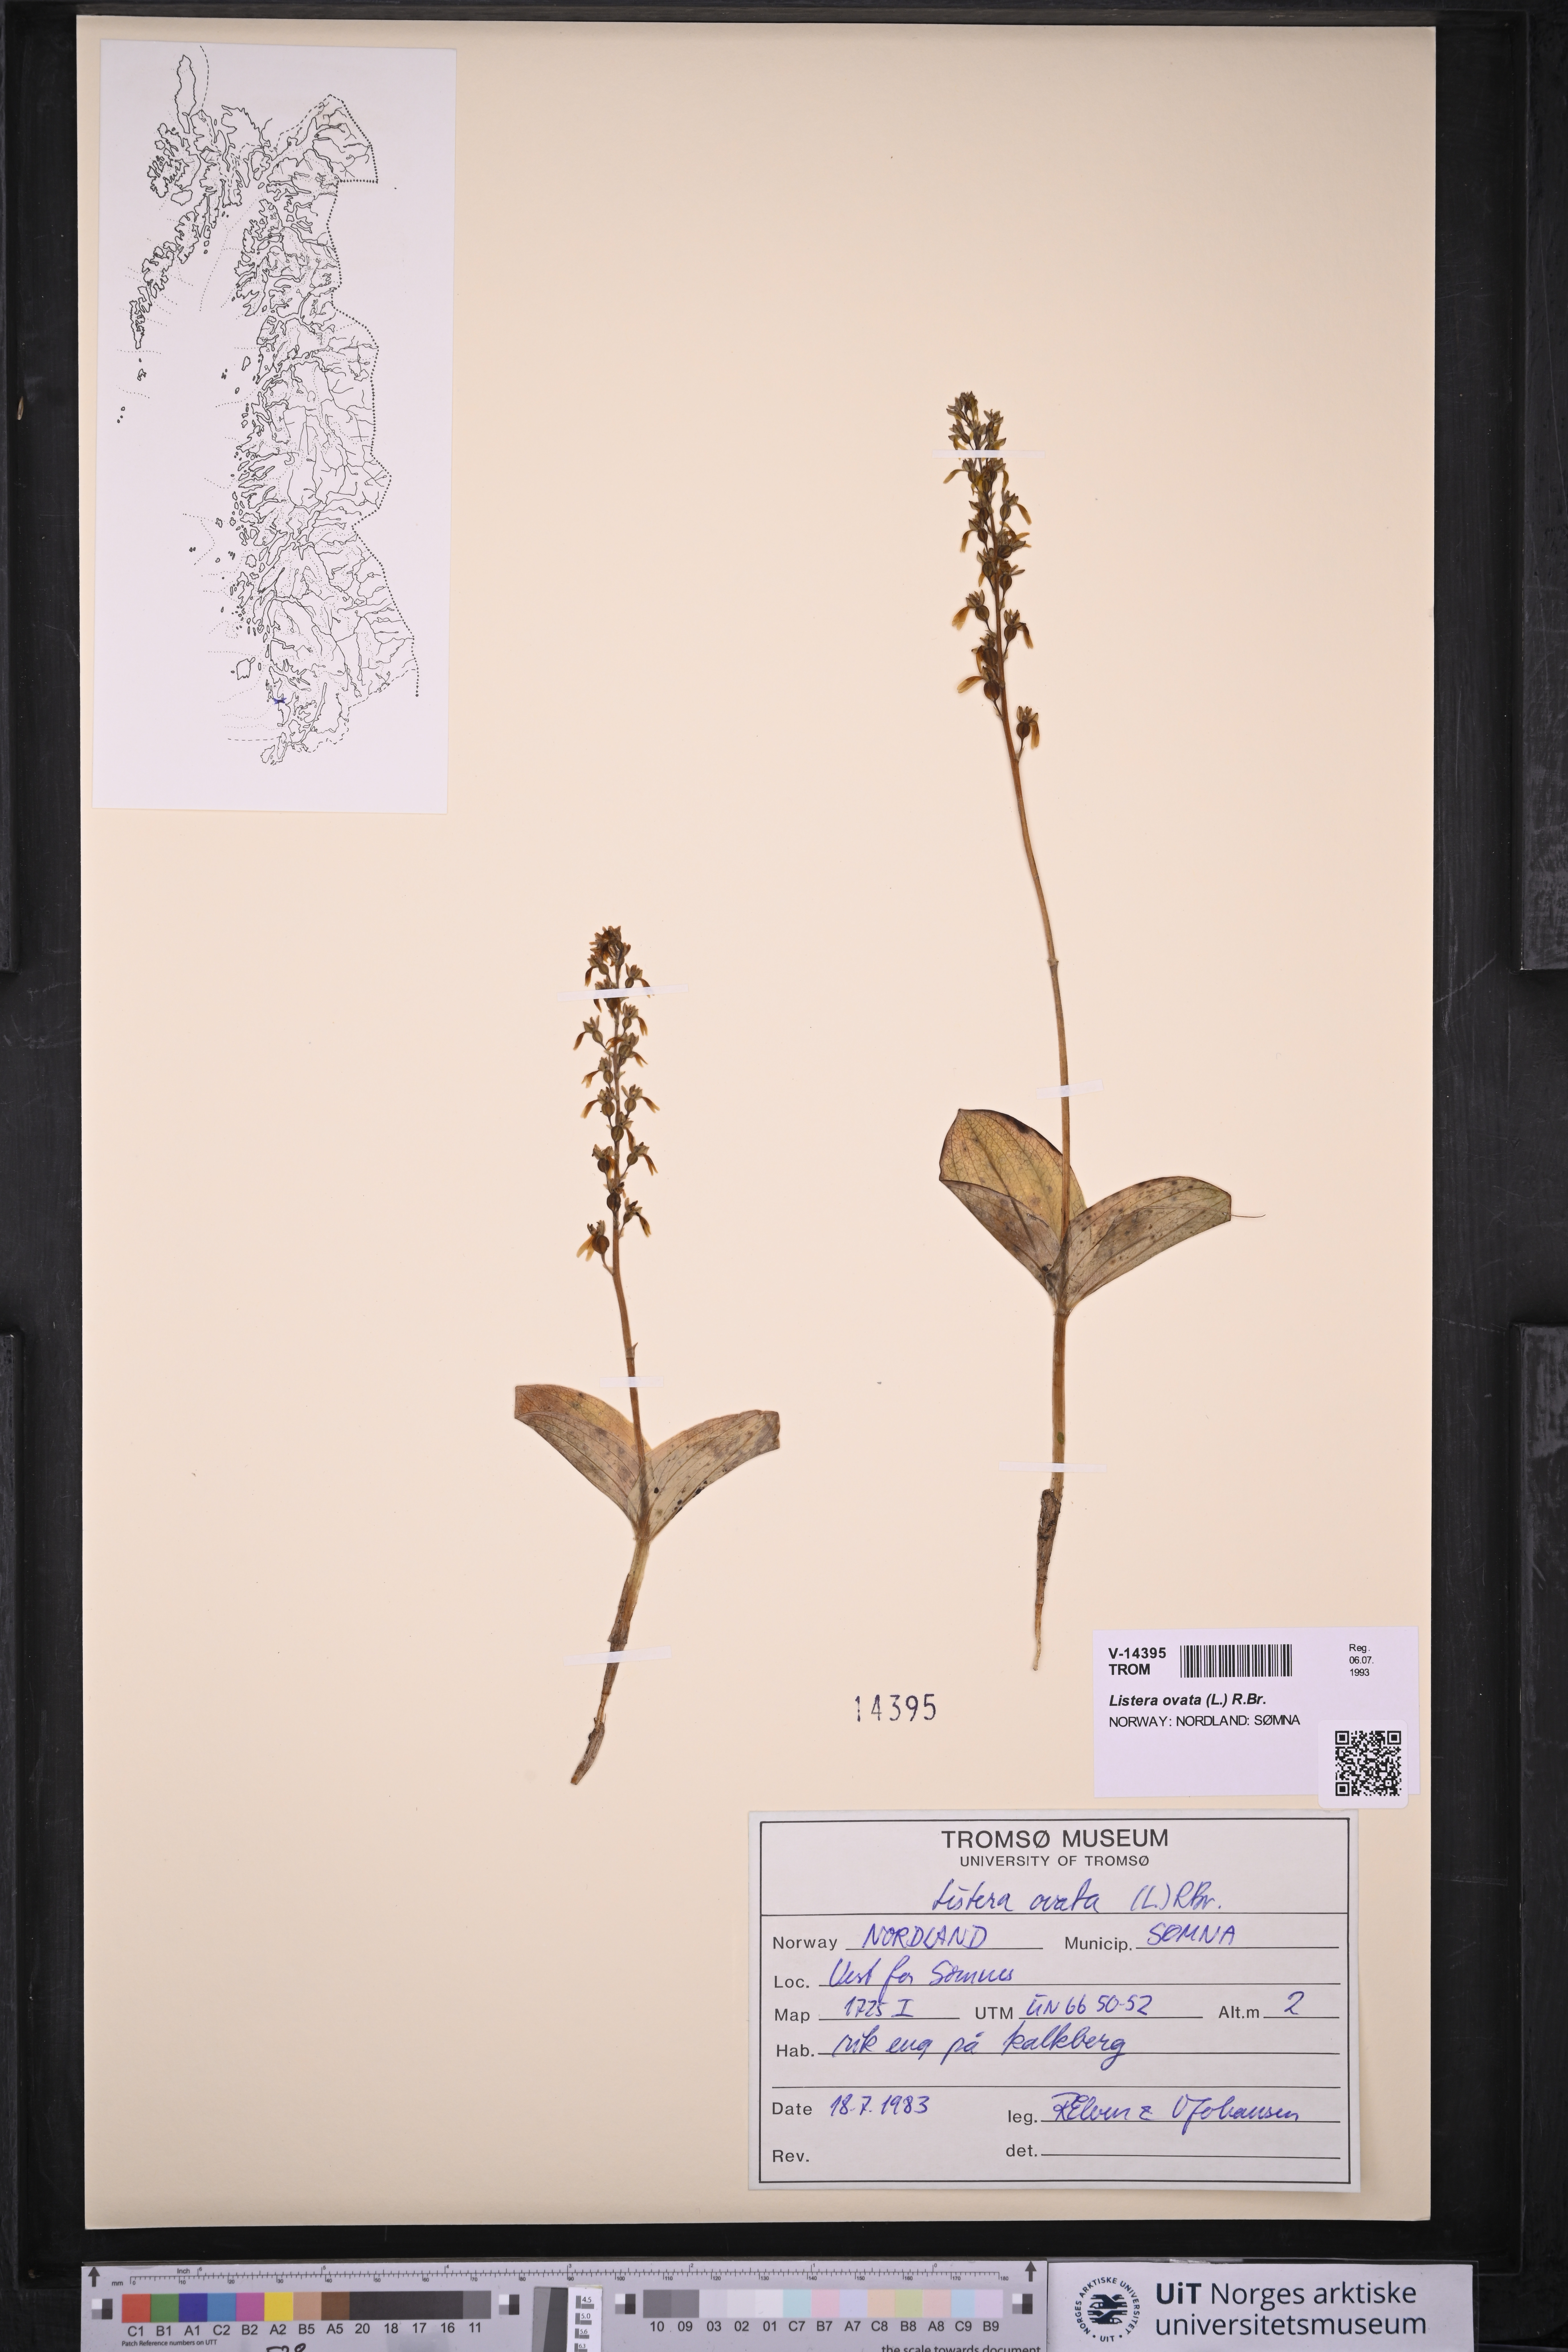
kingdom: Plantae
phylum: Tracheophyta
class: Liliopsida
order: Asparagales
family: Orchidaceae
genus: Neottia
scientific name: Neottia ovata
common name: Common twayblade
